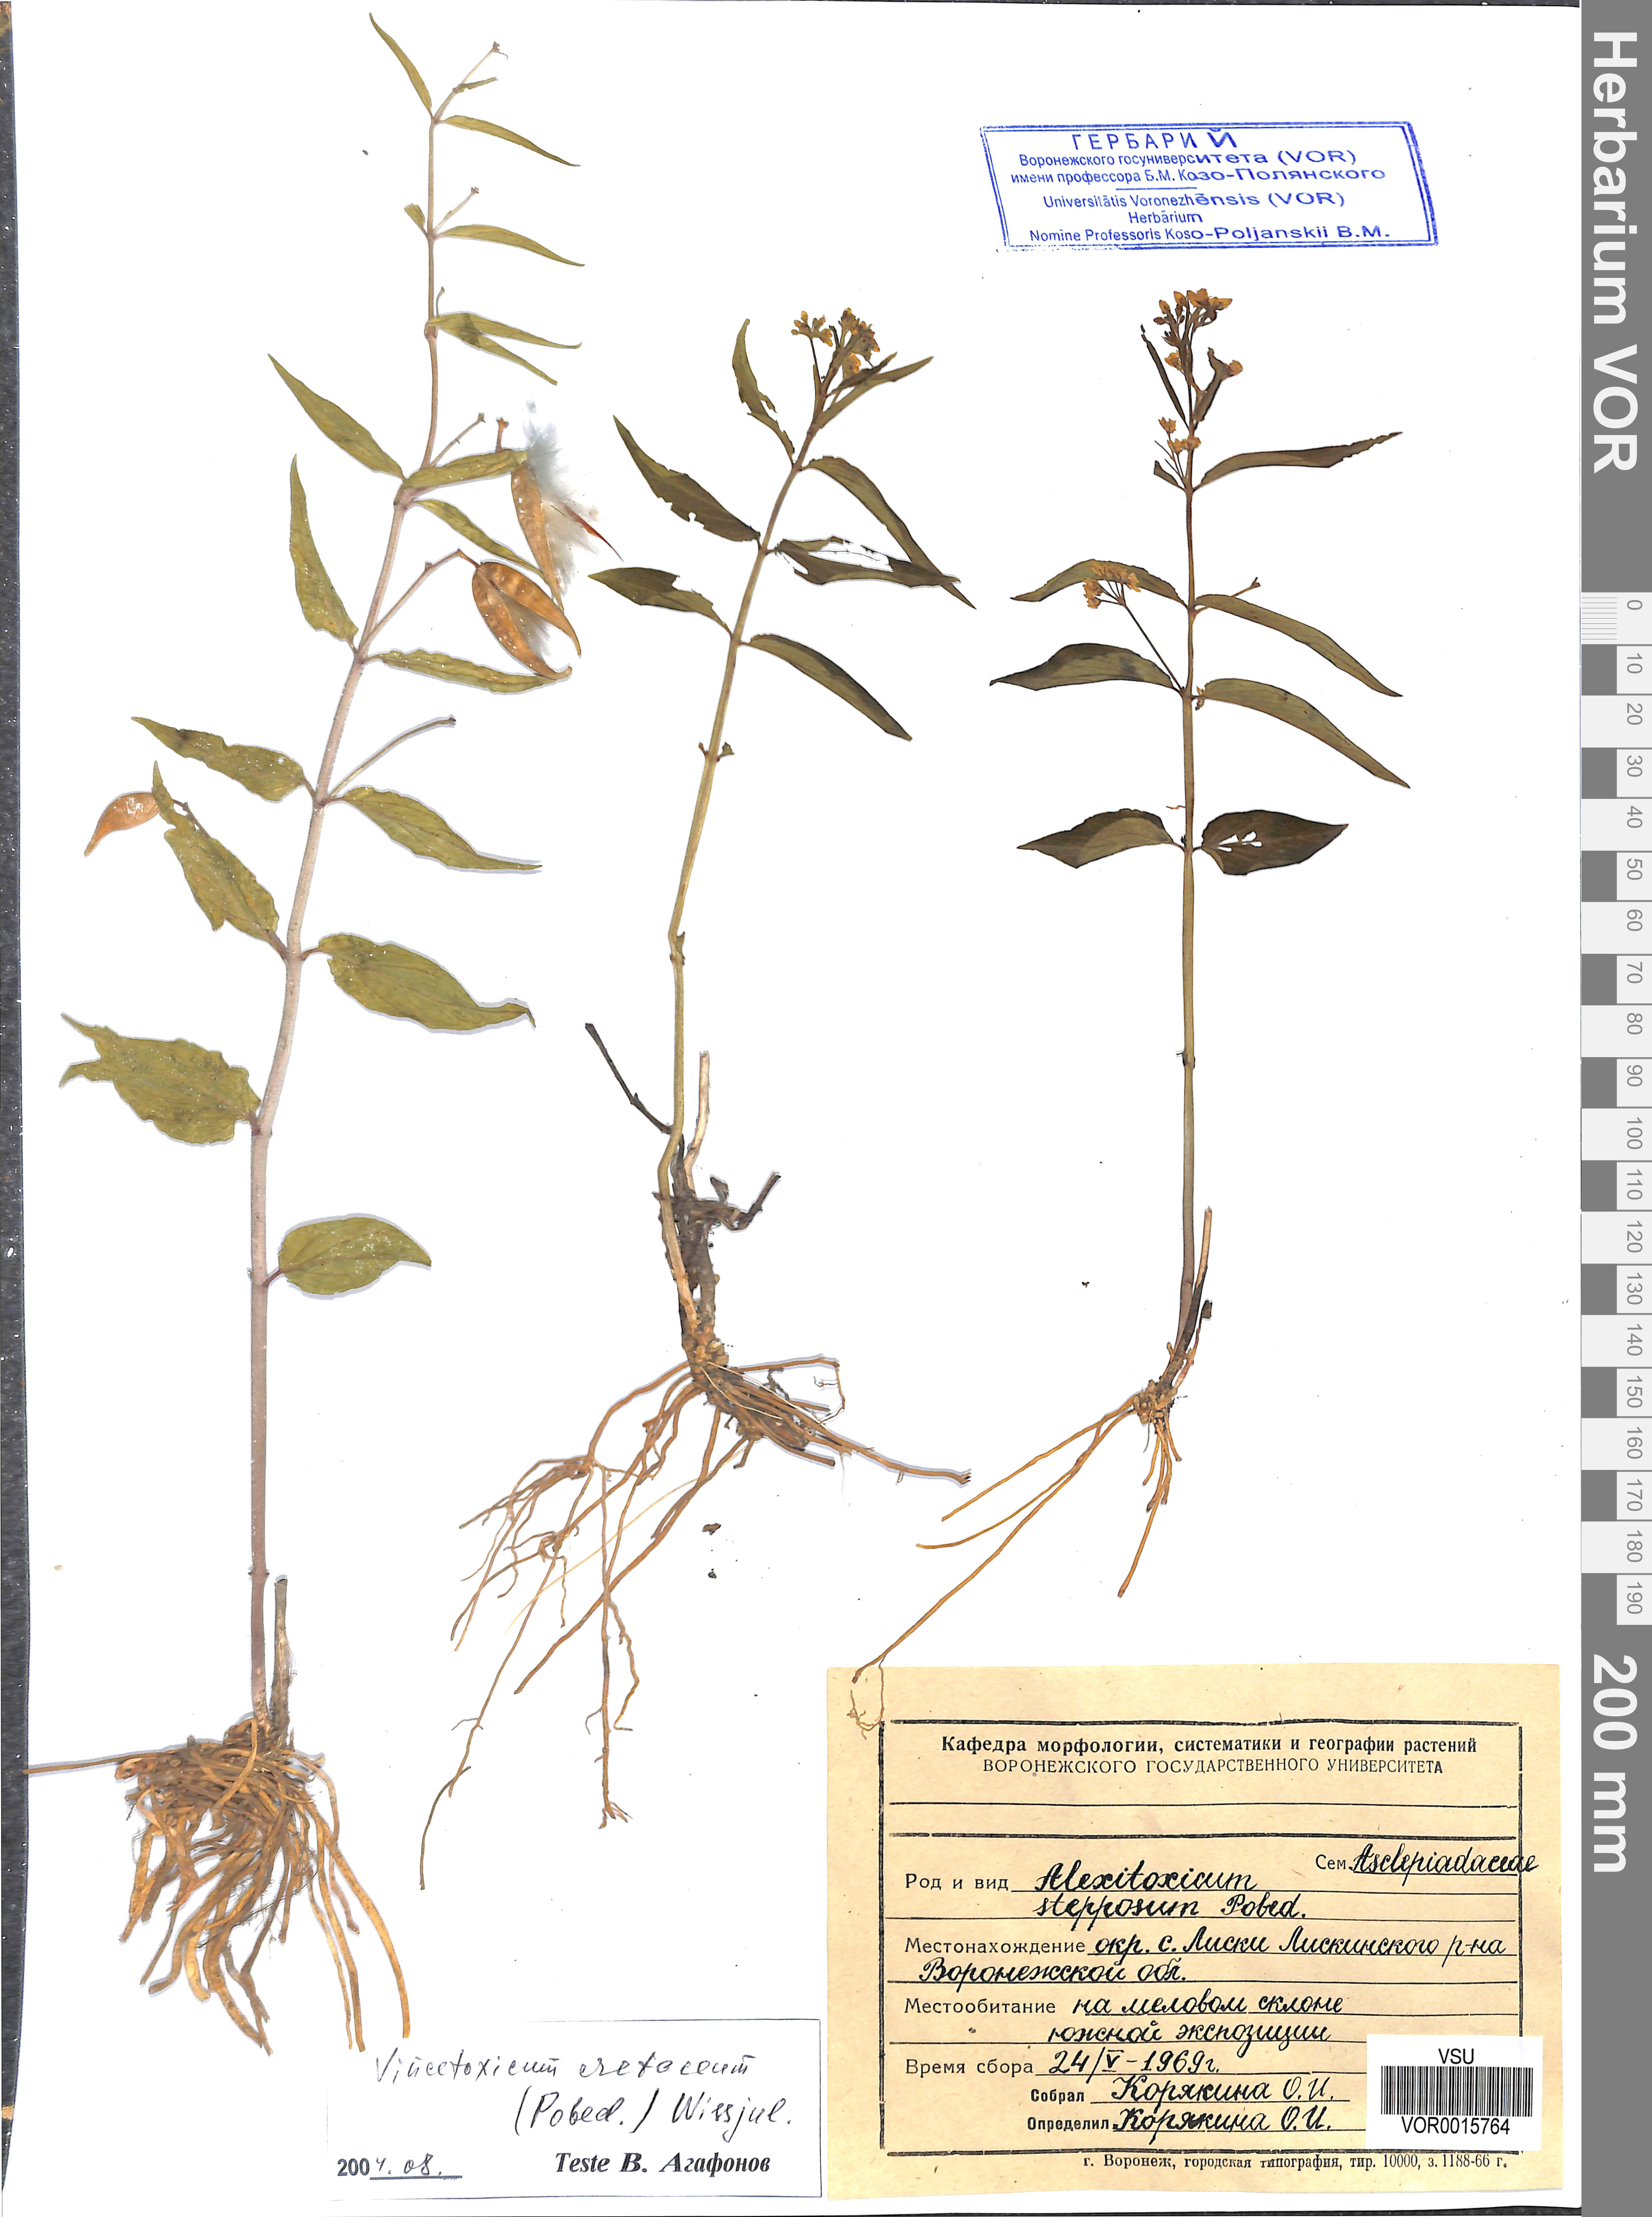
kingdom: Plantae
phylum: Tracheophyta
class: Magnoliopsida
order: Gentianales
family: Apocynaceae
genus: Vincetoxicum
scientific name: Vincetoxicum hirundinaria
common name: White swallowwort
